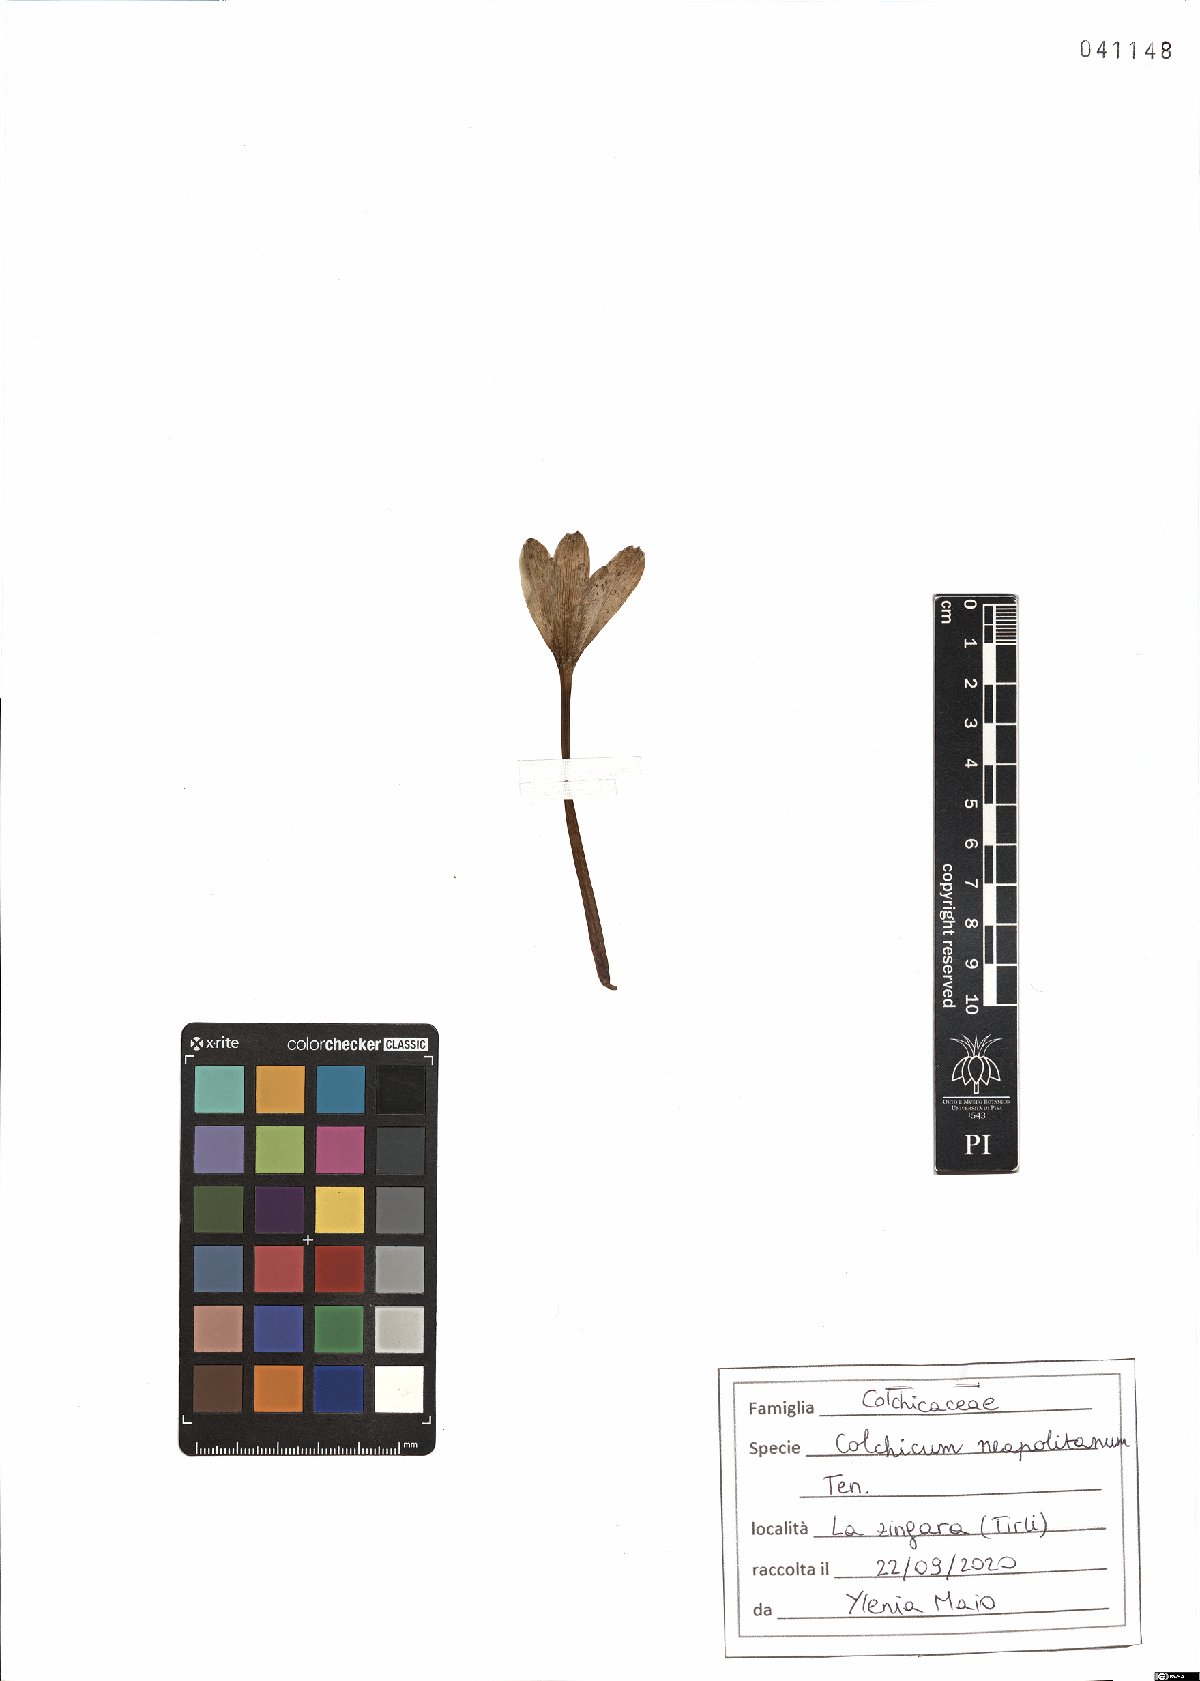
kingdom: Plantae
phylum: Tracheophyta
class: Liliopsida
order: Liliales
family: Colchicaceae
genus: Colchicum
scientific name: Colchicum neapolitanum
